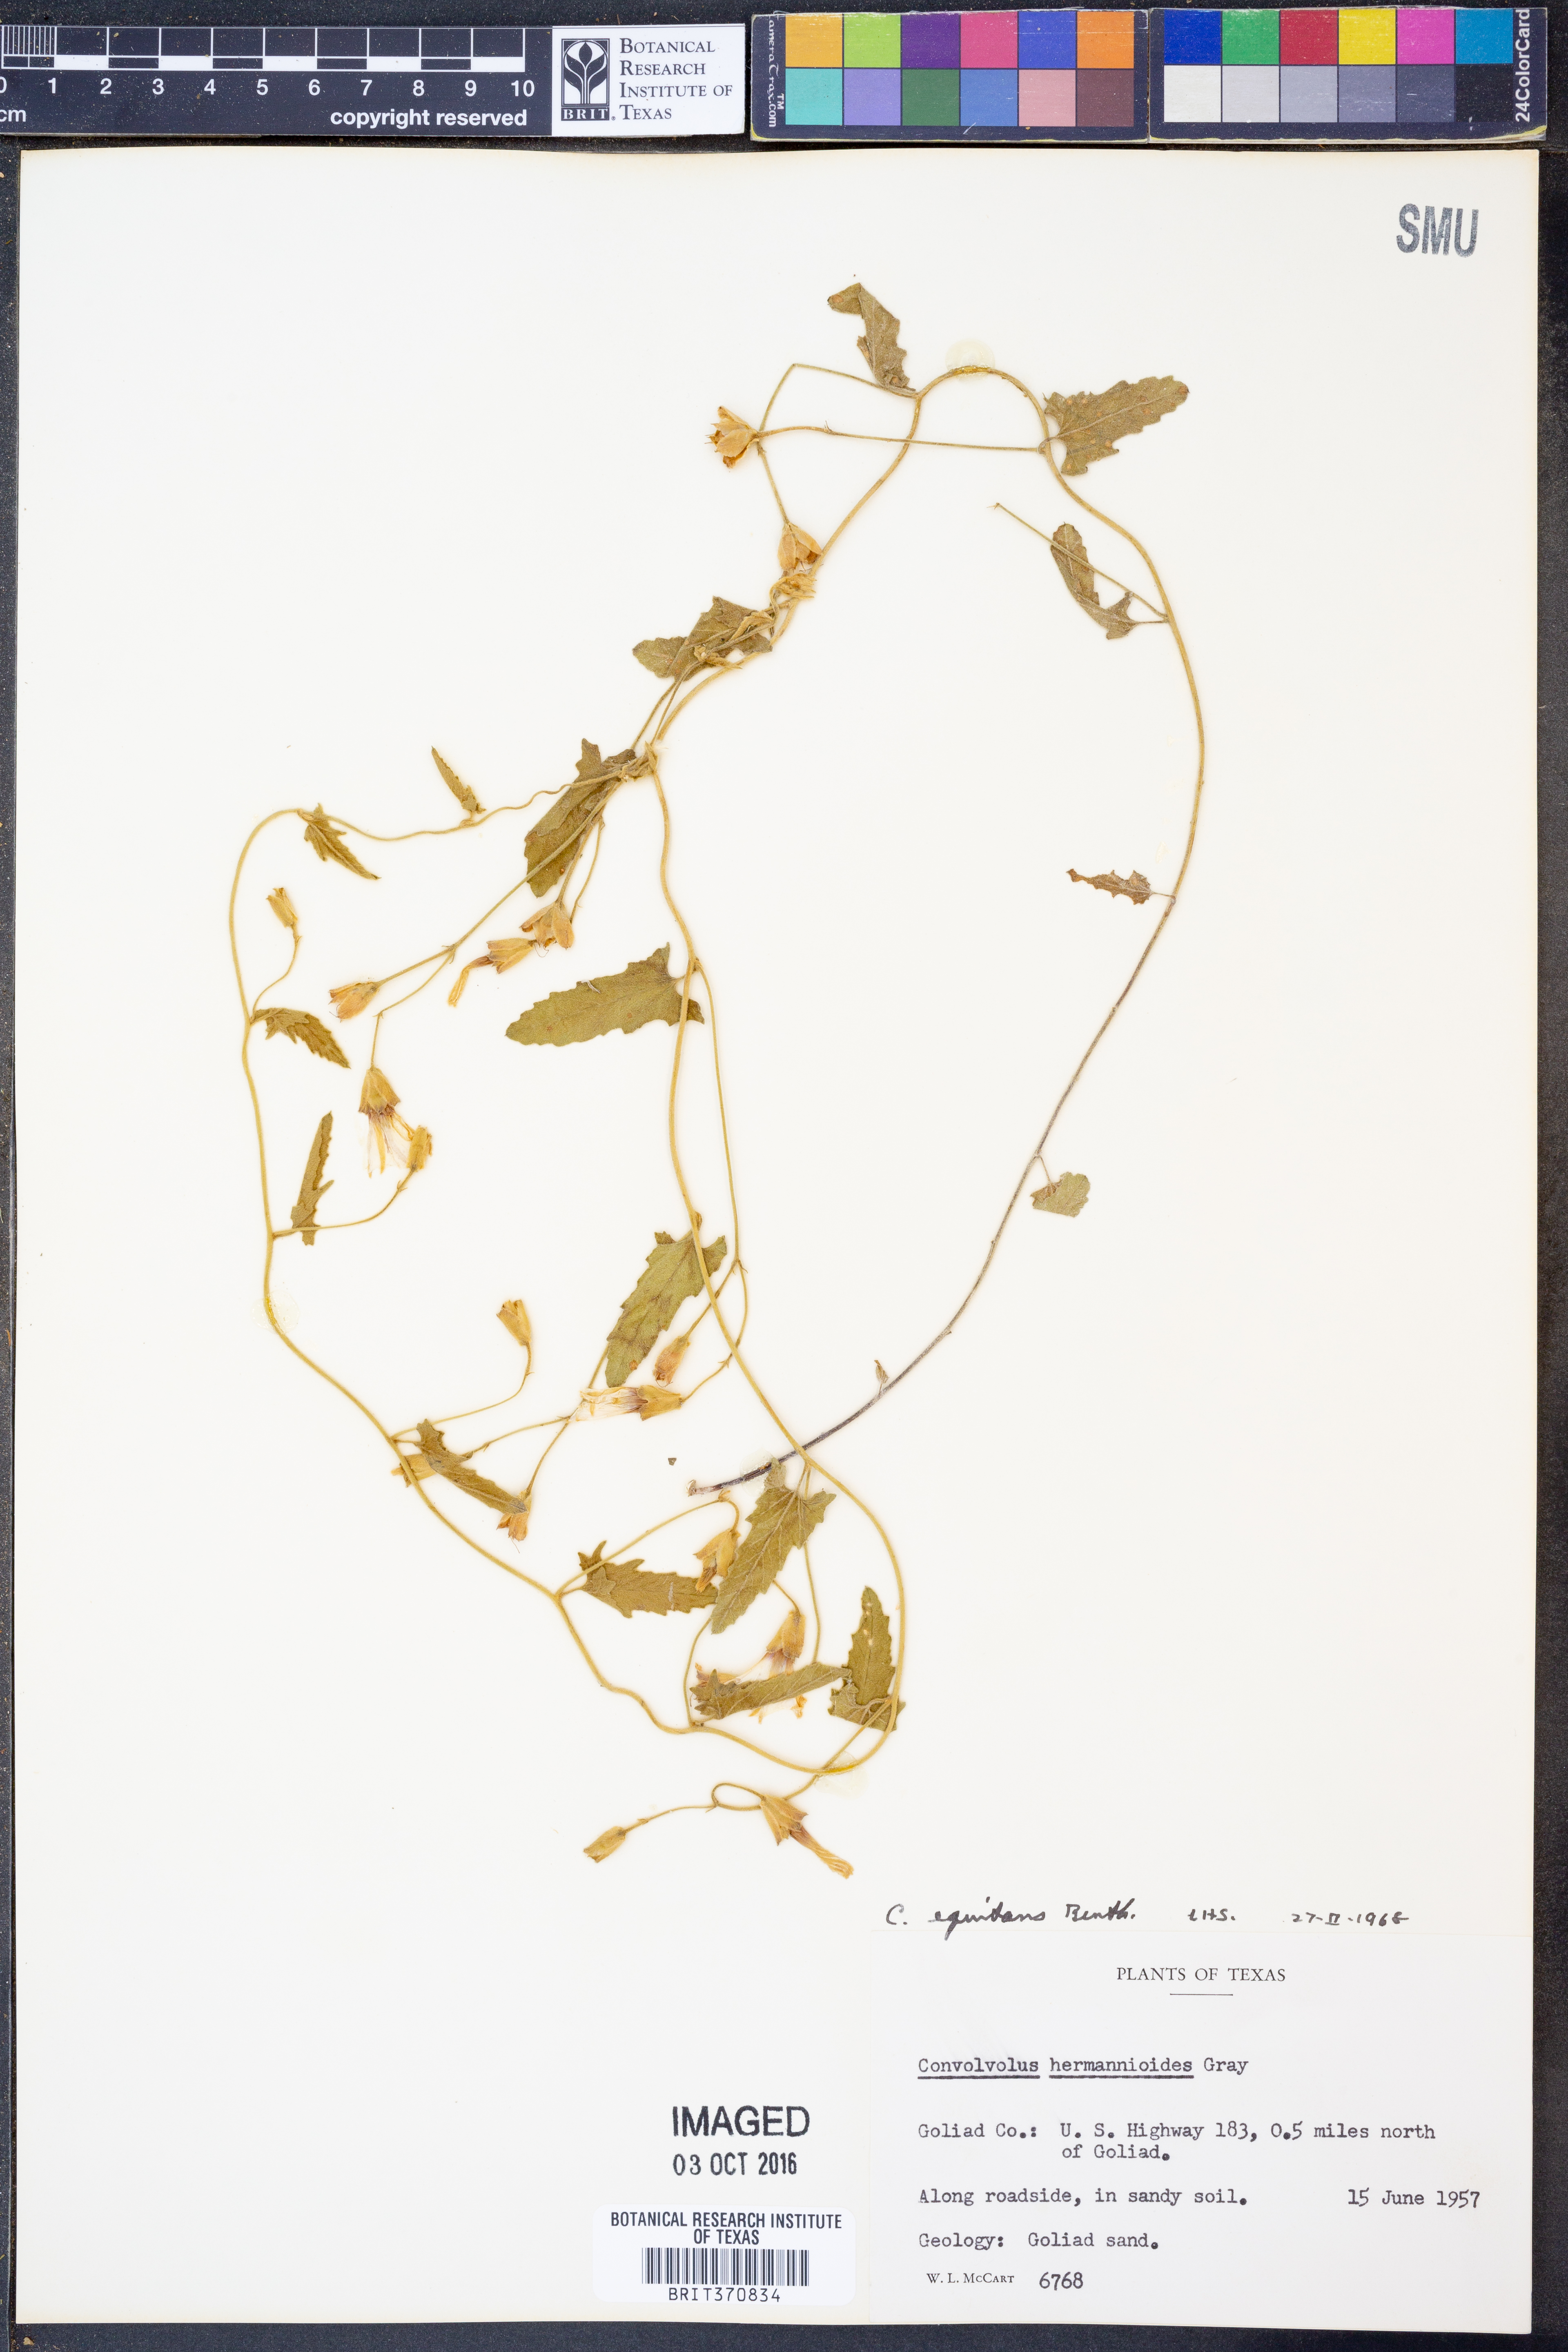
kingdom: Plantae
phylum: Tracheophyta
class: Magnoliopsida
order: Solanales
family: Convolvulaceae
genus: Convolvulus
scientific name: Convolvulus equitans
